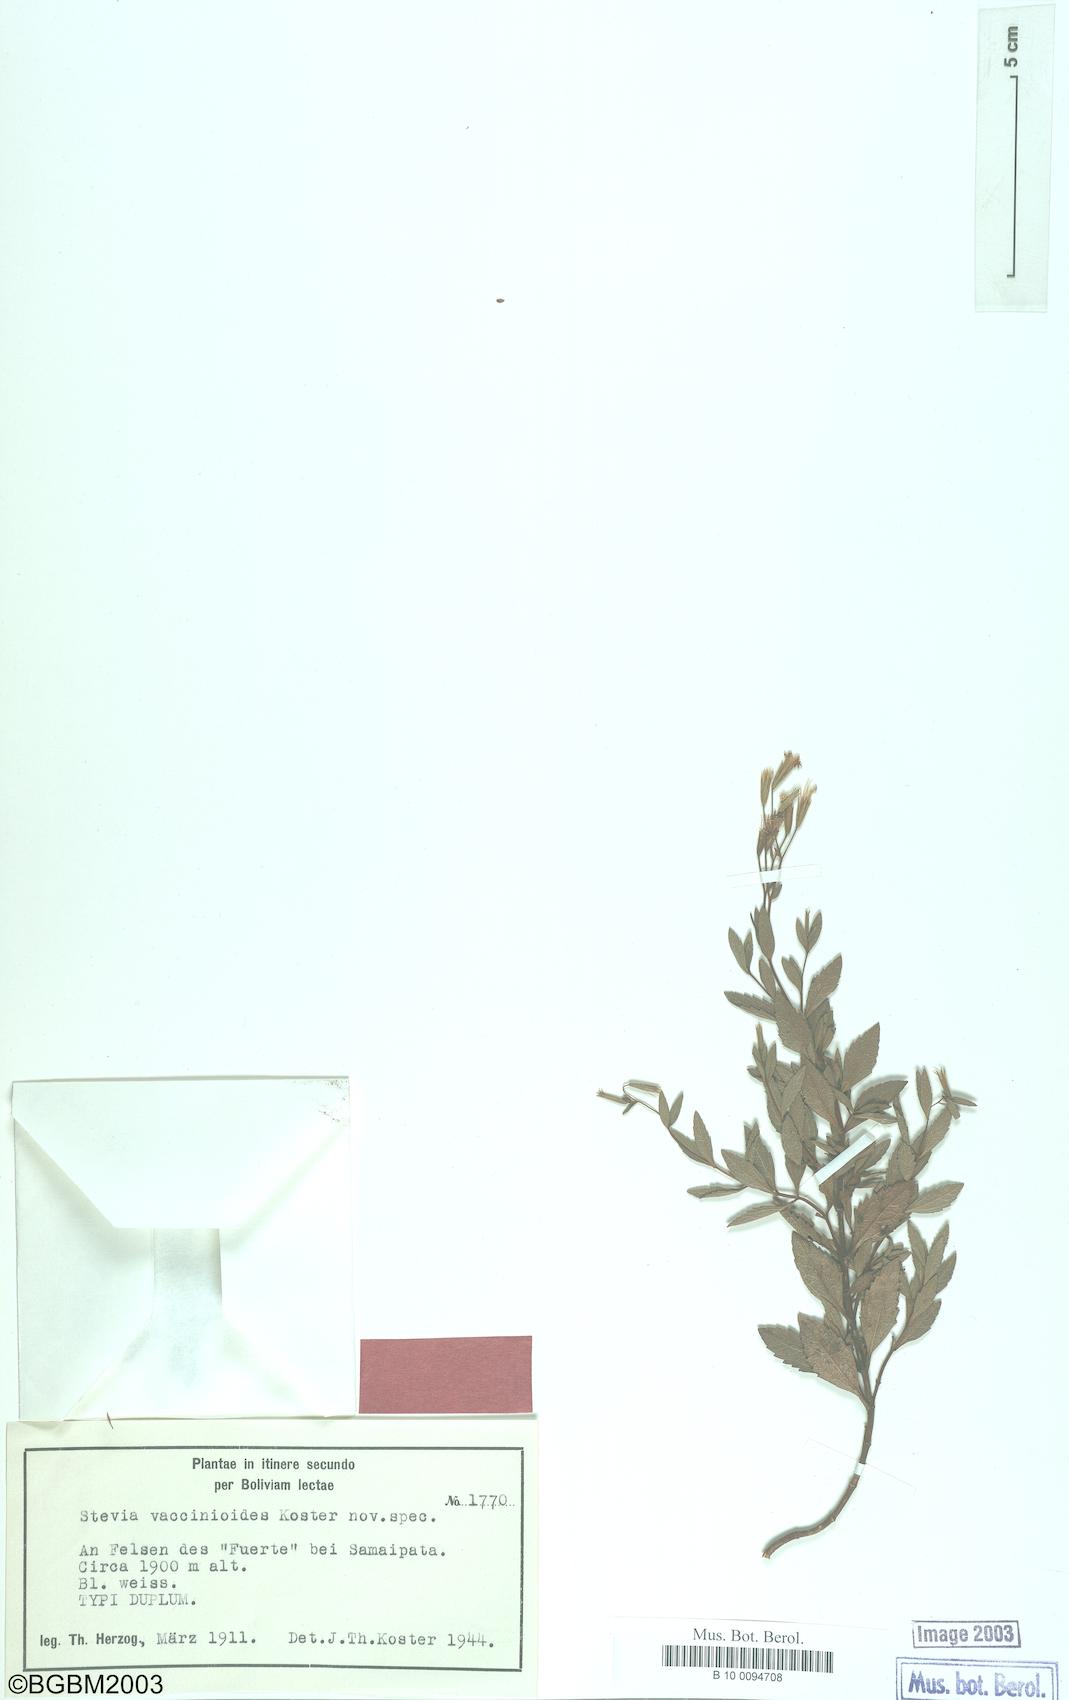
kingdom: Plantae
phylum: Tracheophyta
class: Magnoliopsida
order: Asterales
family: Asteraceae
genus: Stevia
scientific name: Stevia vaccinioides
